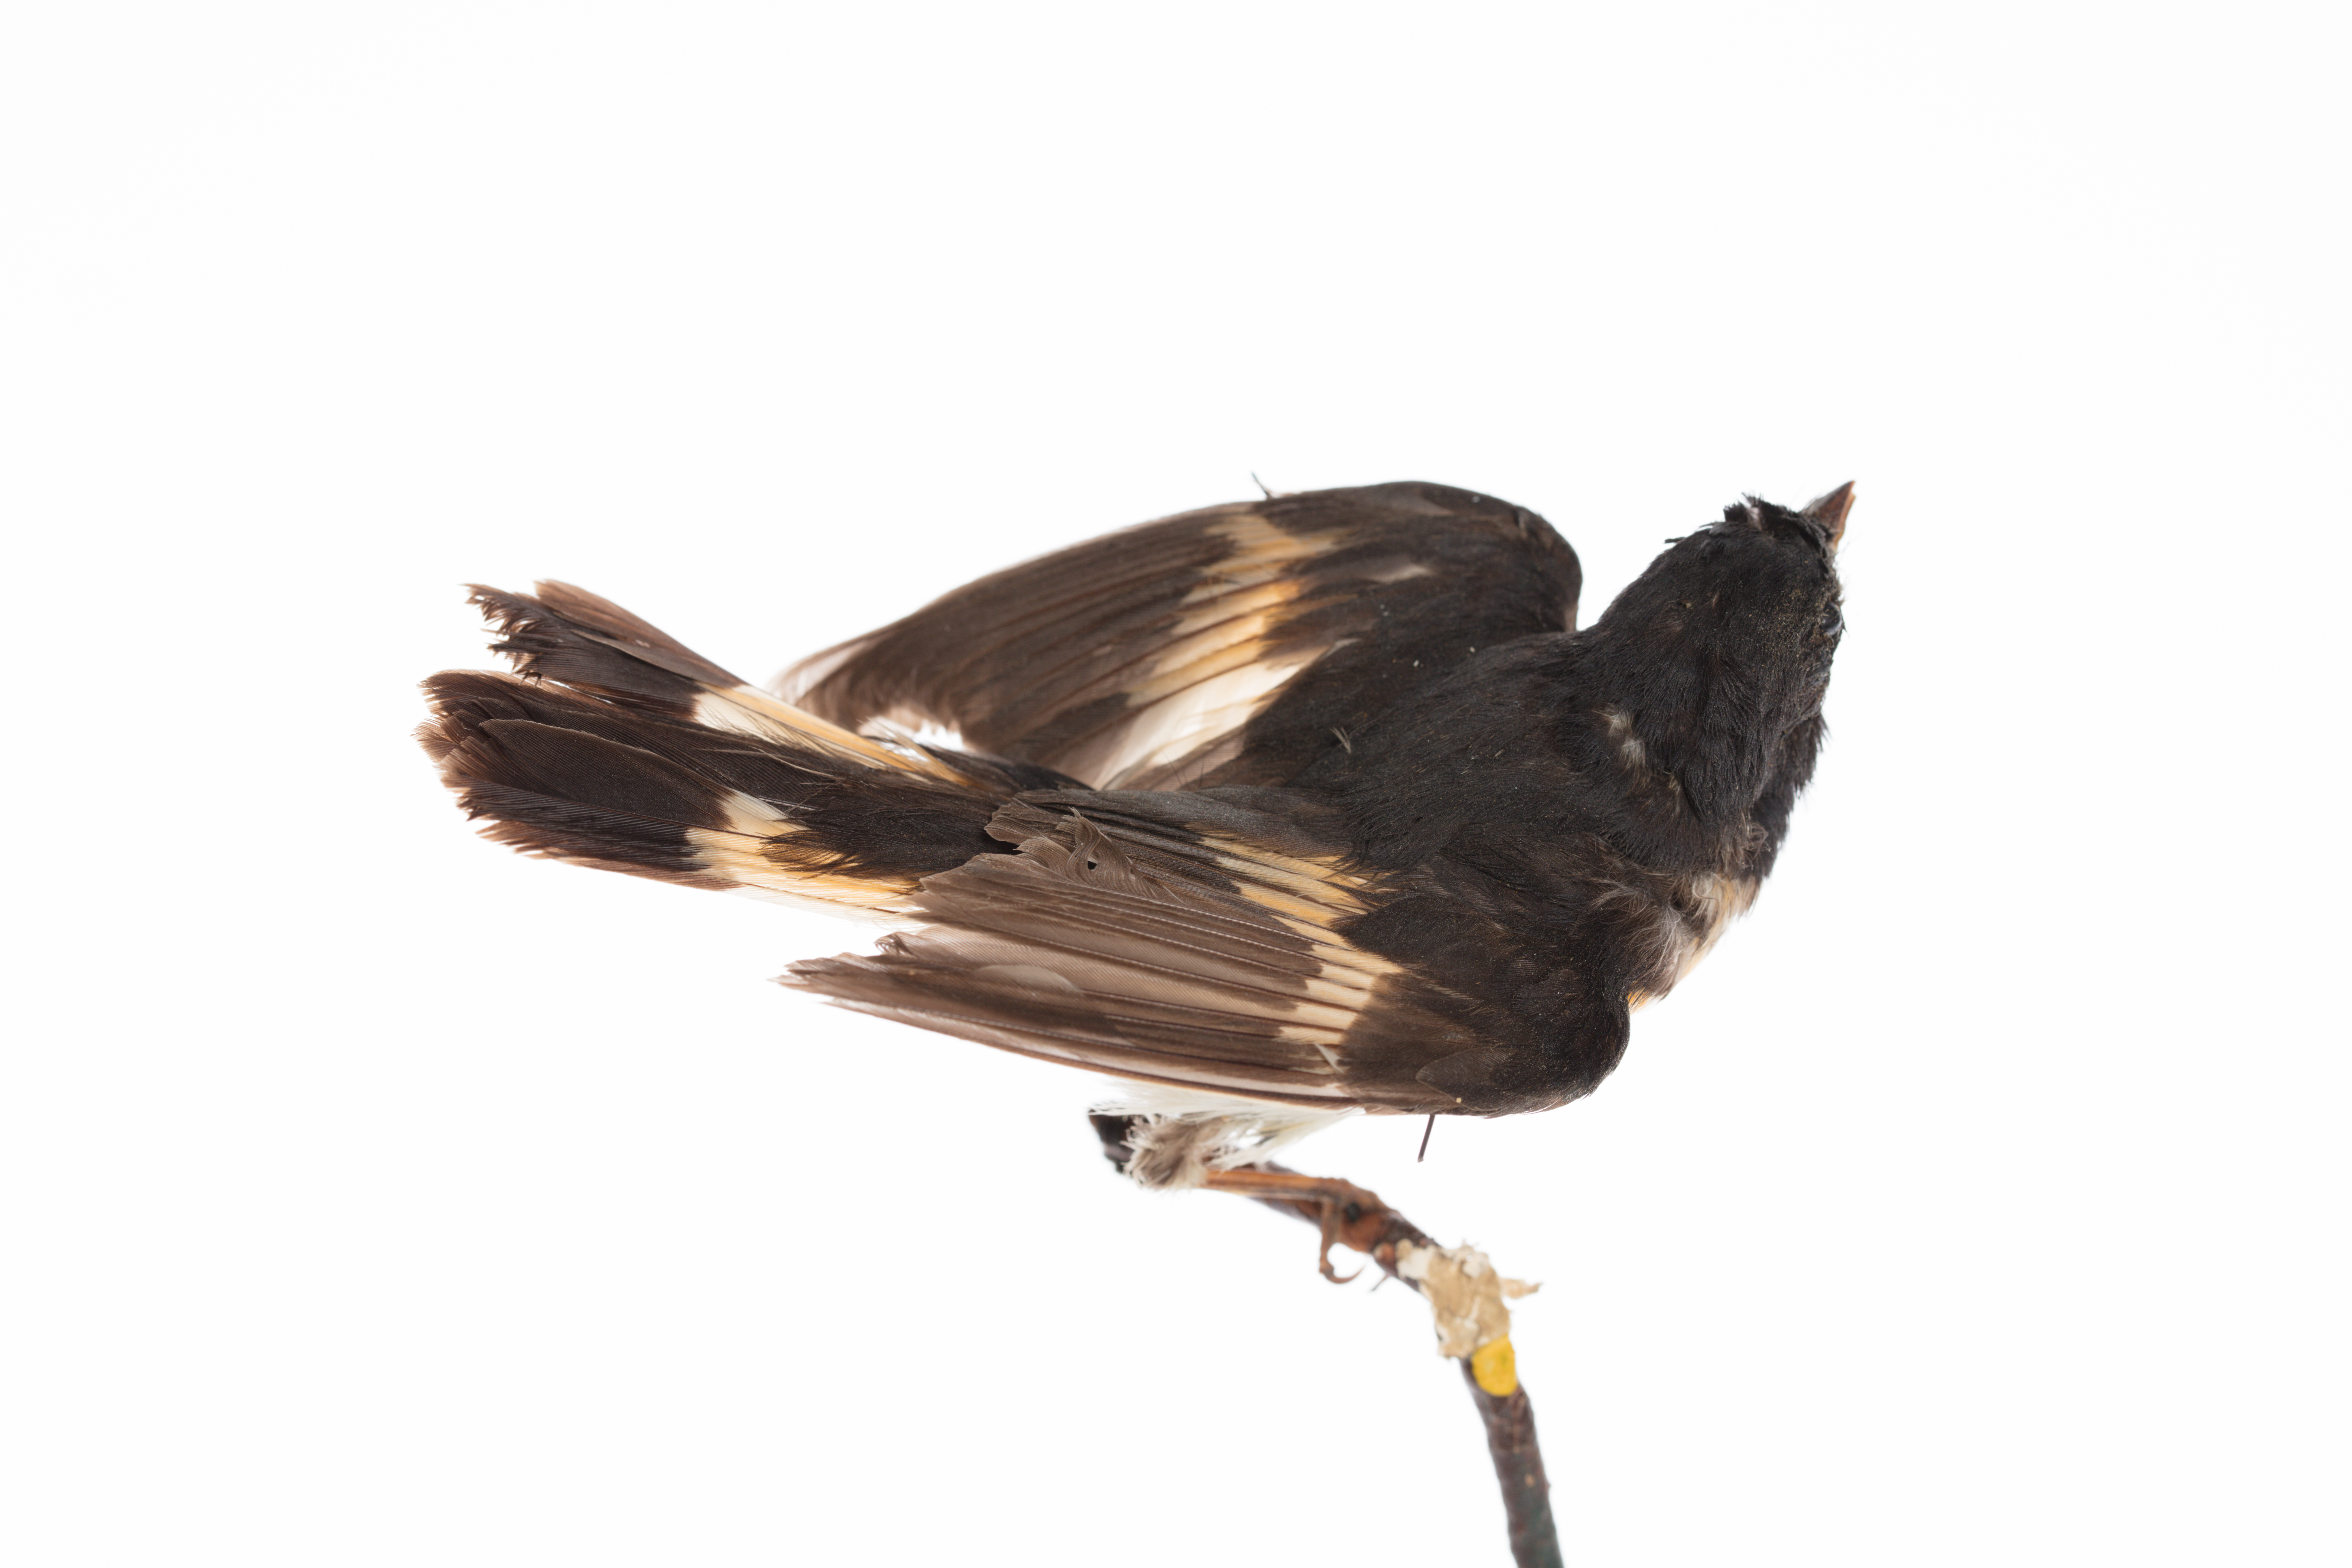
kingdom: Animalia
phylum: Chordata
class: Aves
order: Passeriformes
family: Parulidae
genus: Setophaga
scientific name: Setophaga ruticilla
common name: American redstart
